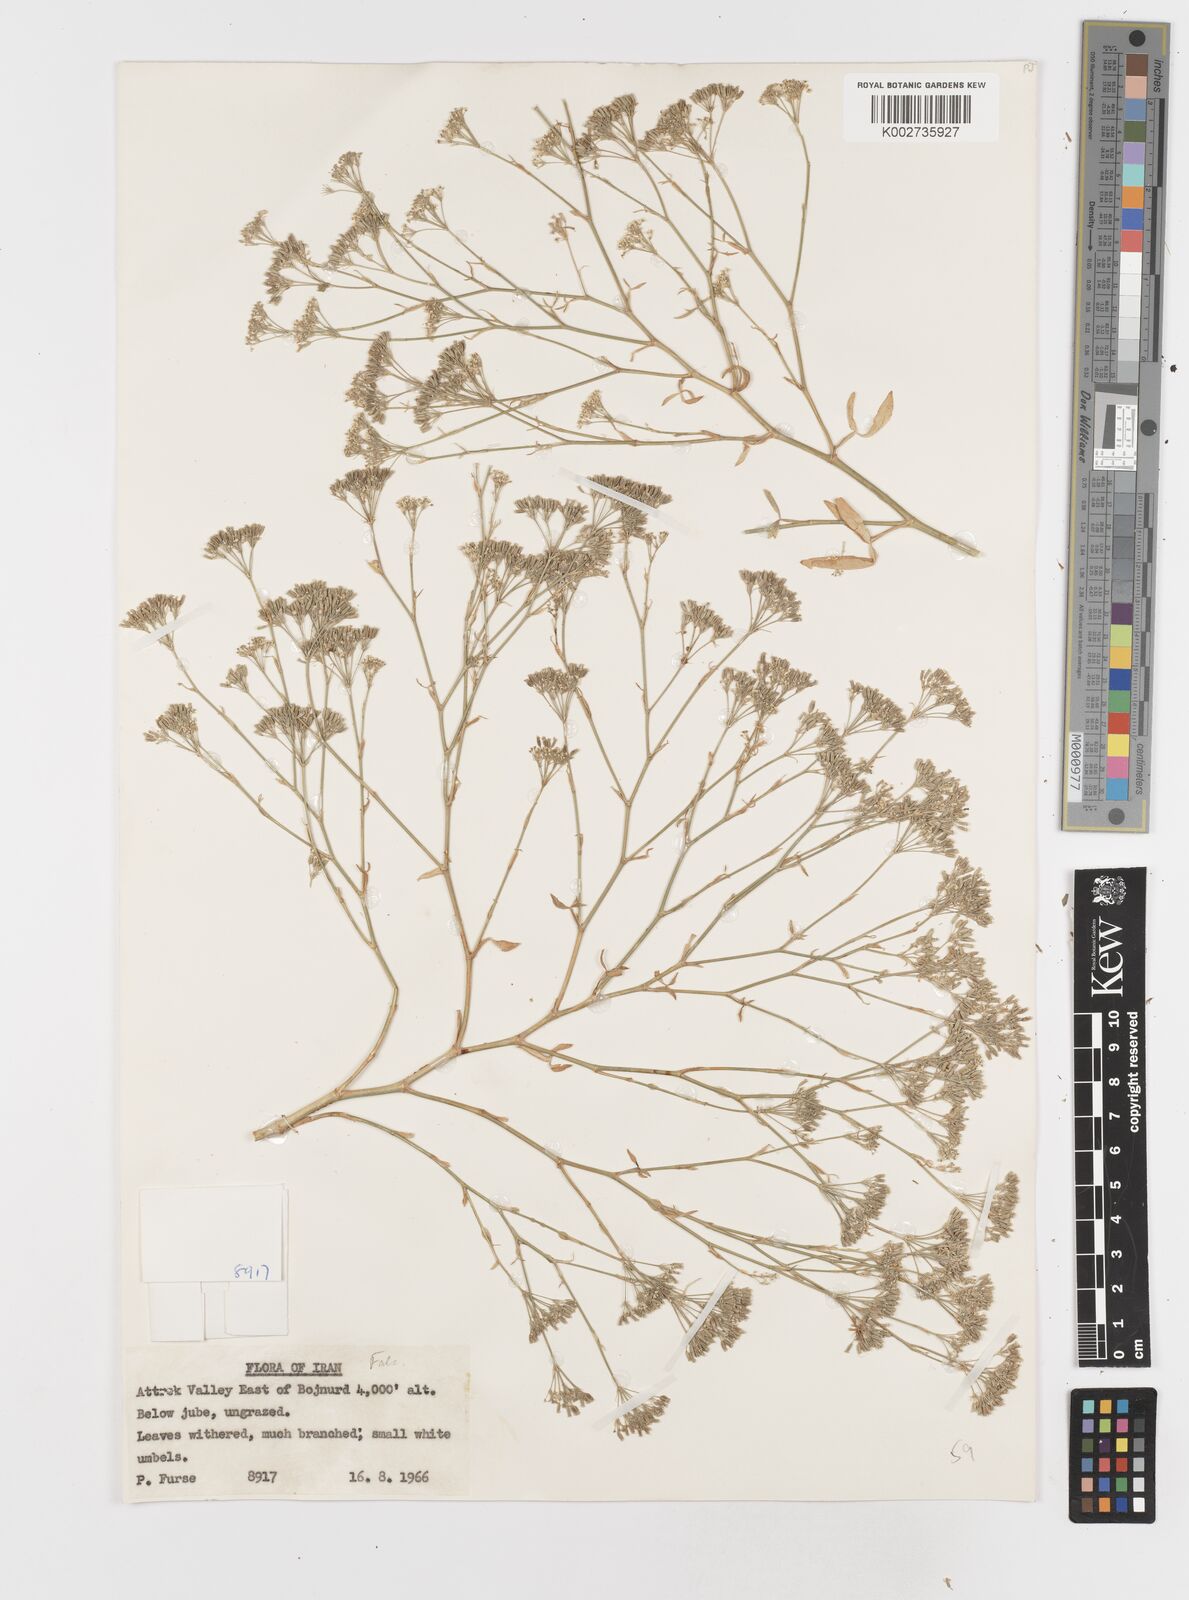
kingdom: Plantae
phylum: Tracheophyta
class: Magnoliopsida
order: Apiales
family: Apiaceae
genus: Falcaria
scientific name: Falcaria
